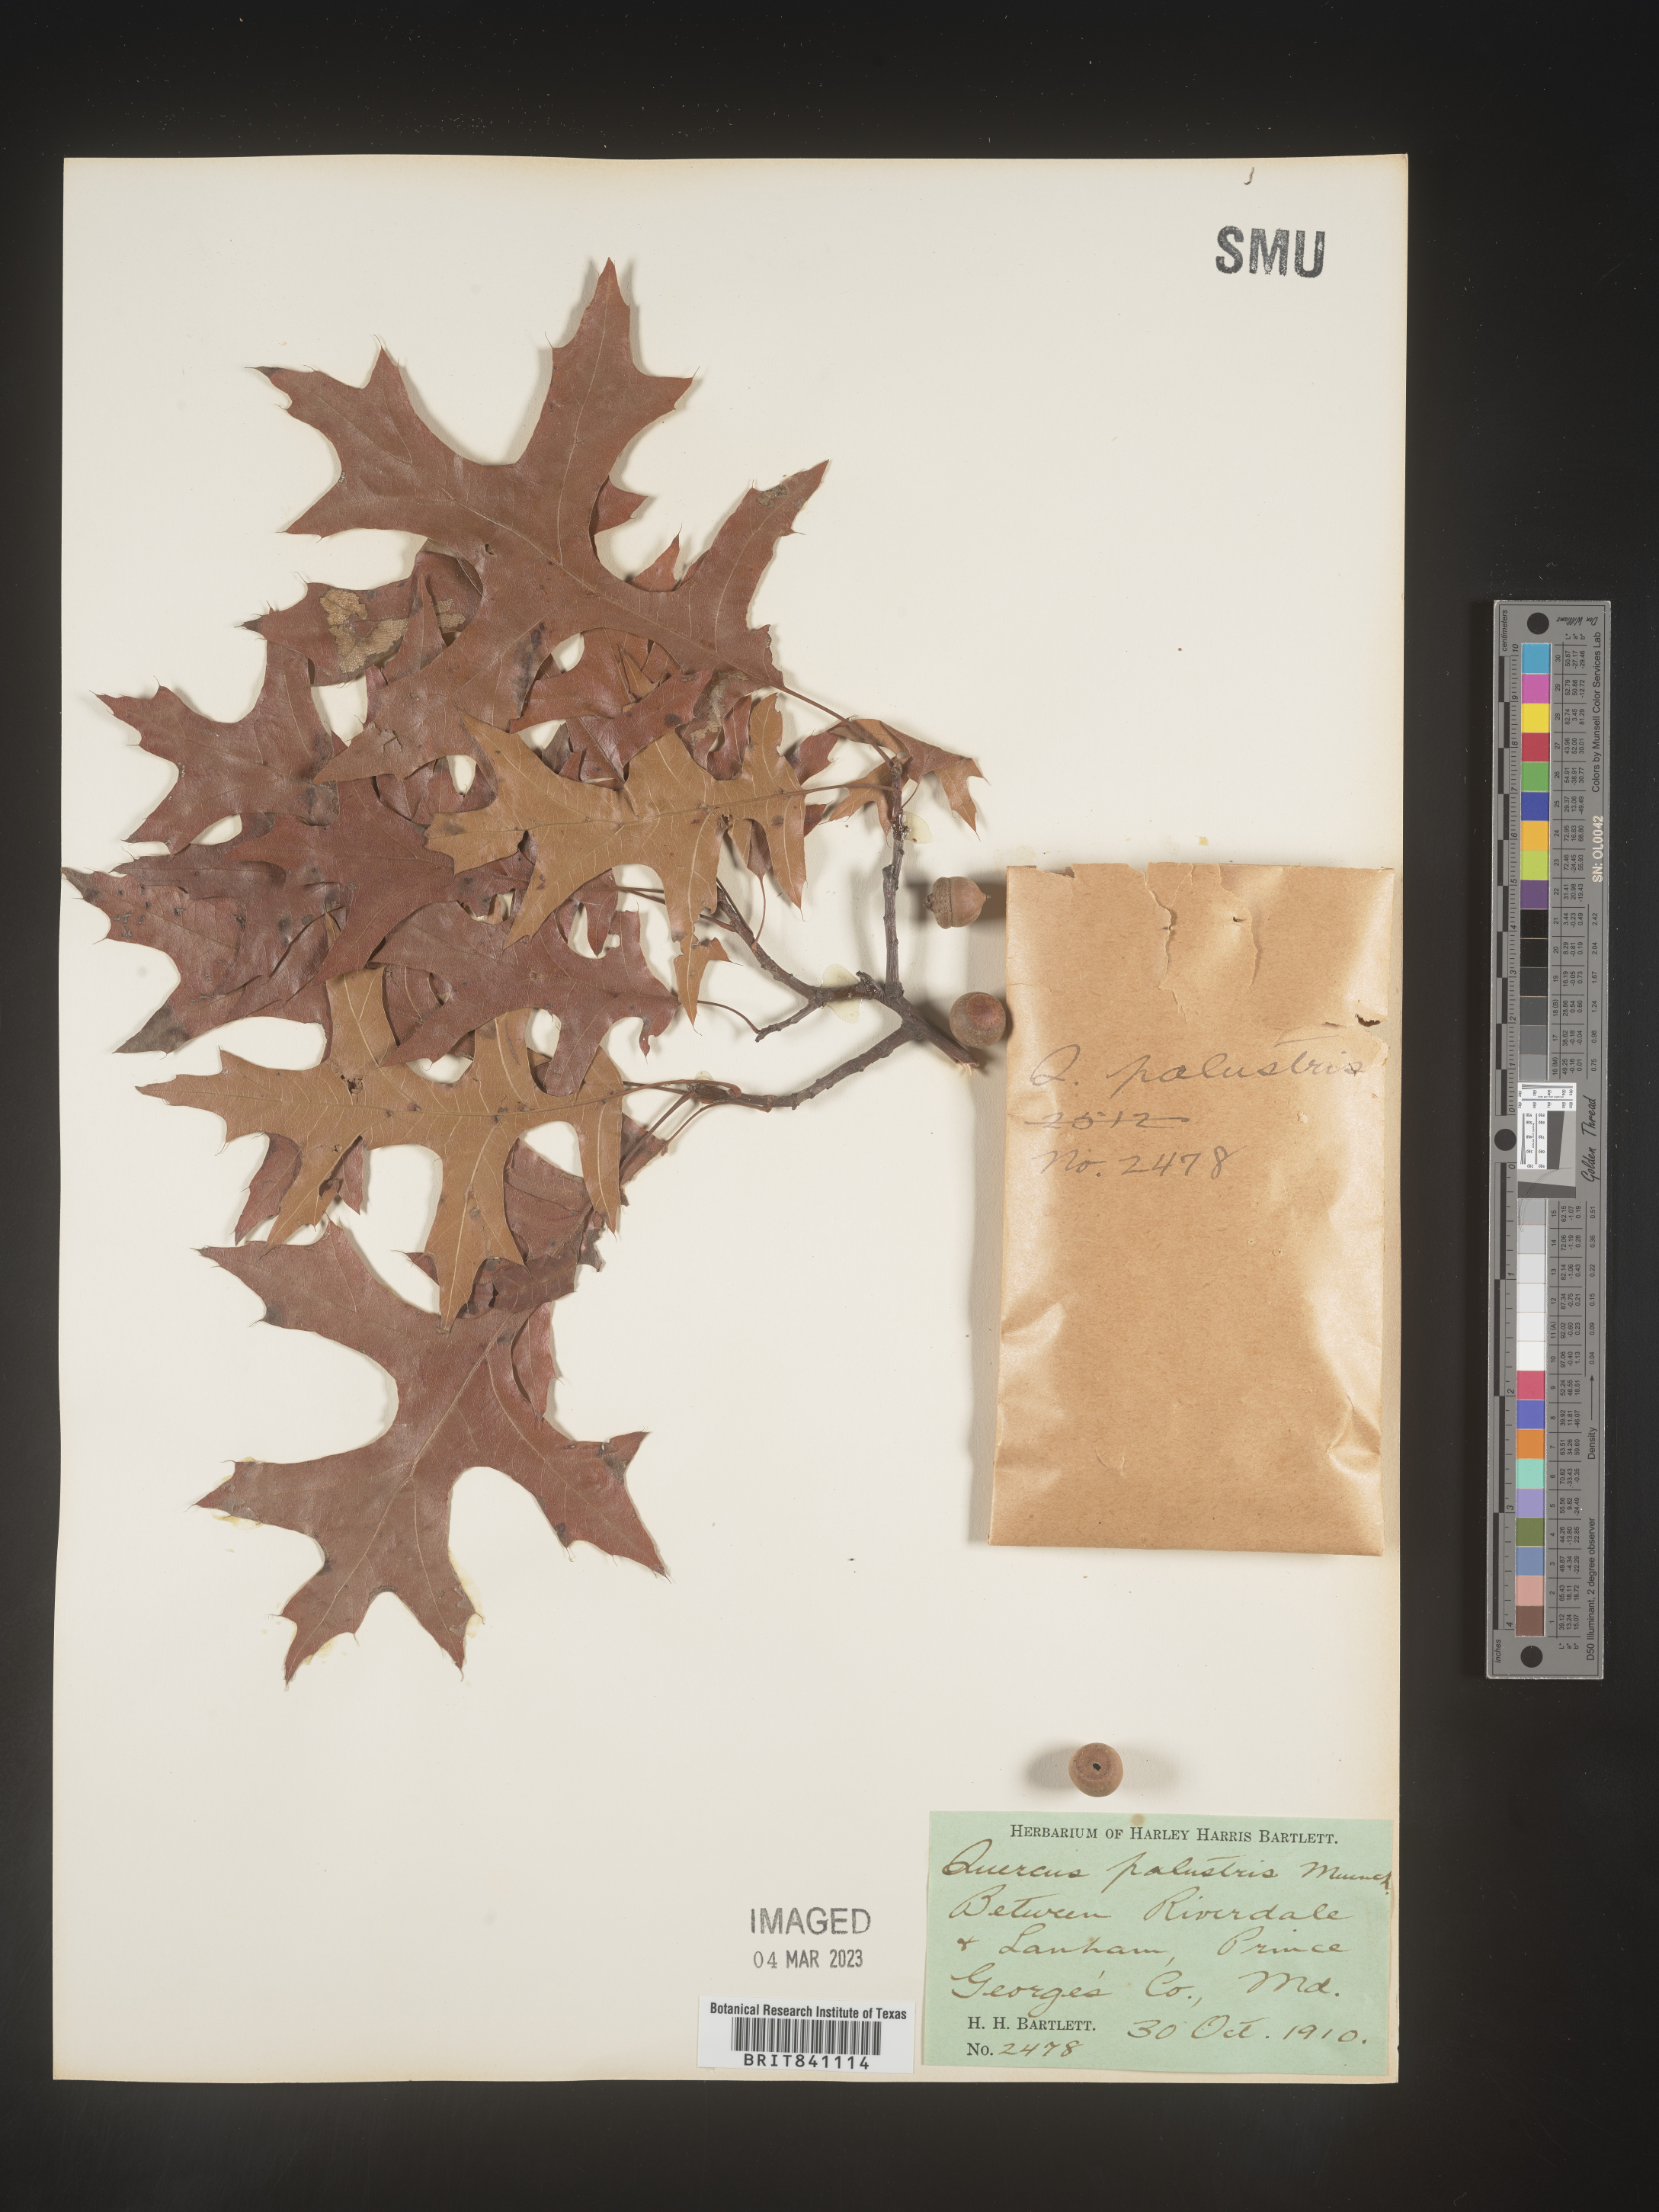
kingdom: Plantae
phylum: Tracheophyta
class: Magnoliopsida
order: Fagales
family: Fagaceae
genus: Quercus
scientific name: Quercus palustris
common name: Pin oak
